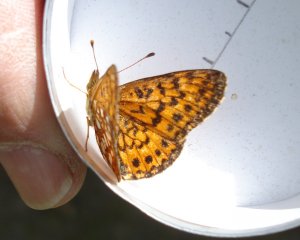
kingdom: Animalia
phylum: Arthropoda
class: Insecta
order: Lepidoptera
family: Nymphalidae
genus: Boloria
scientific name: Boloria selene
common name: Silver-bordered Fritillary
